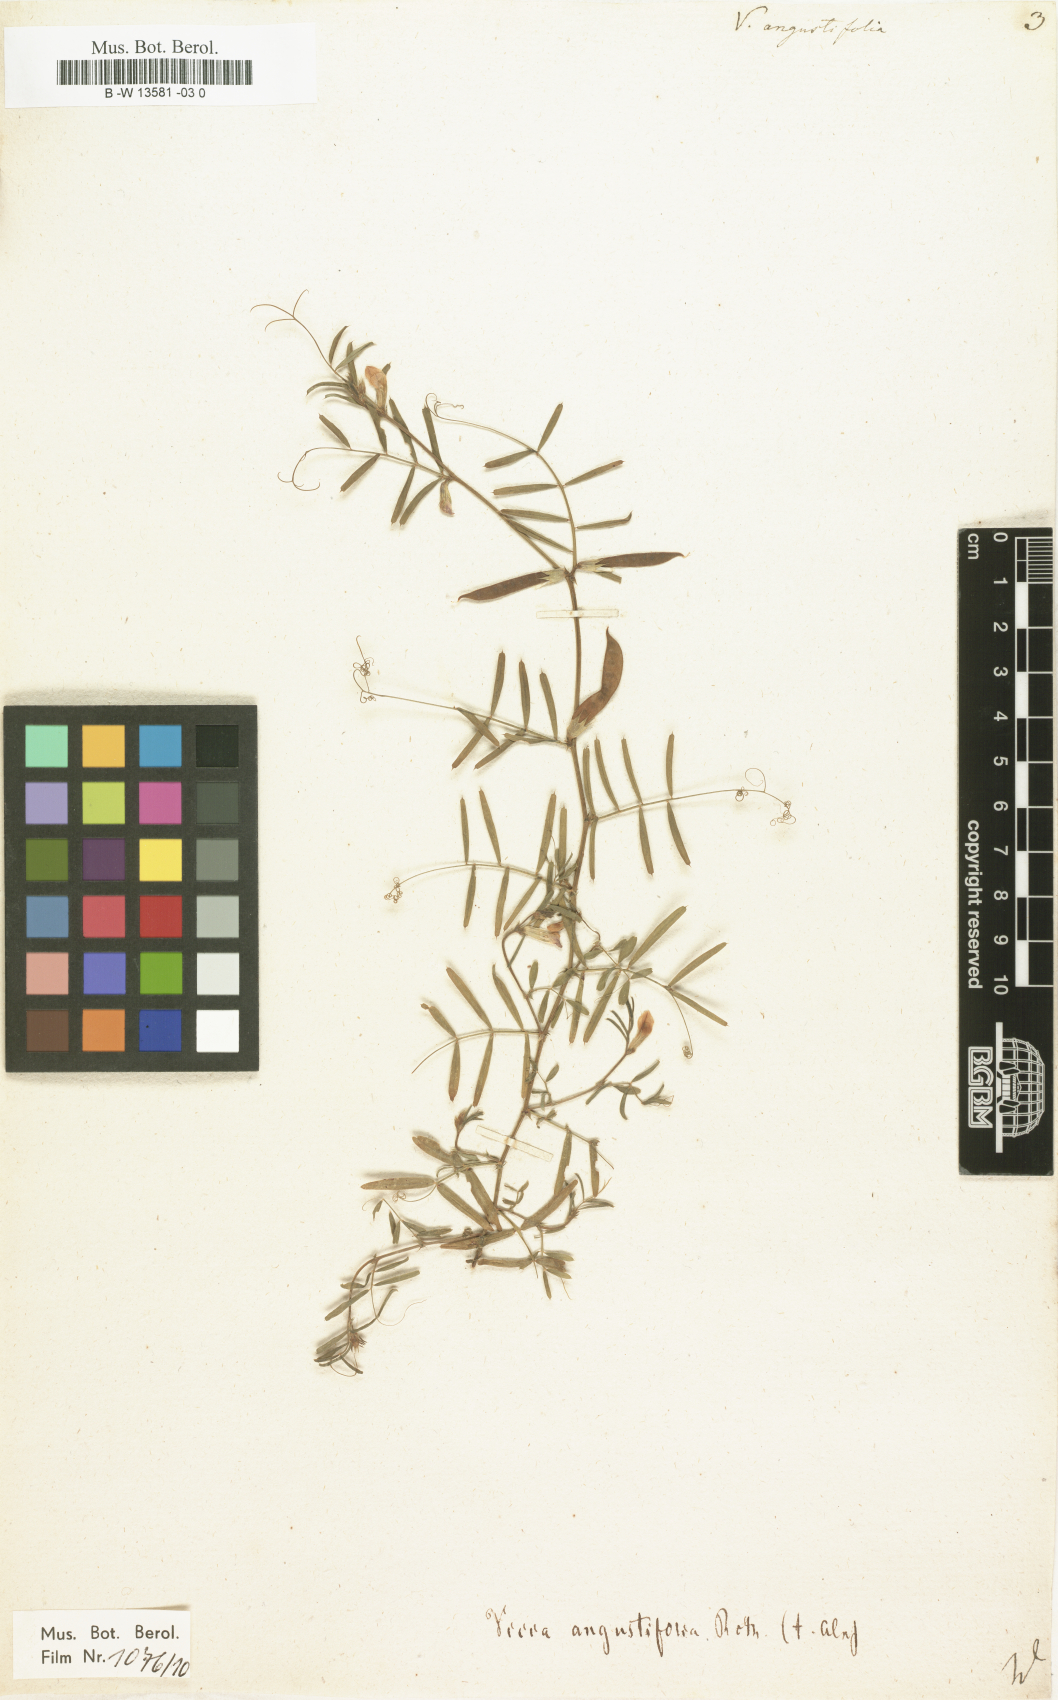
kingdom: Plantae
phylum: Tracheophyta
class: Magnoliopsida
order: Fabales
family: Fabaceae
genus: Vicia
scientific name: Vicia
